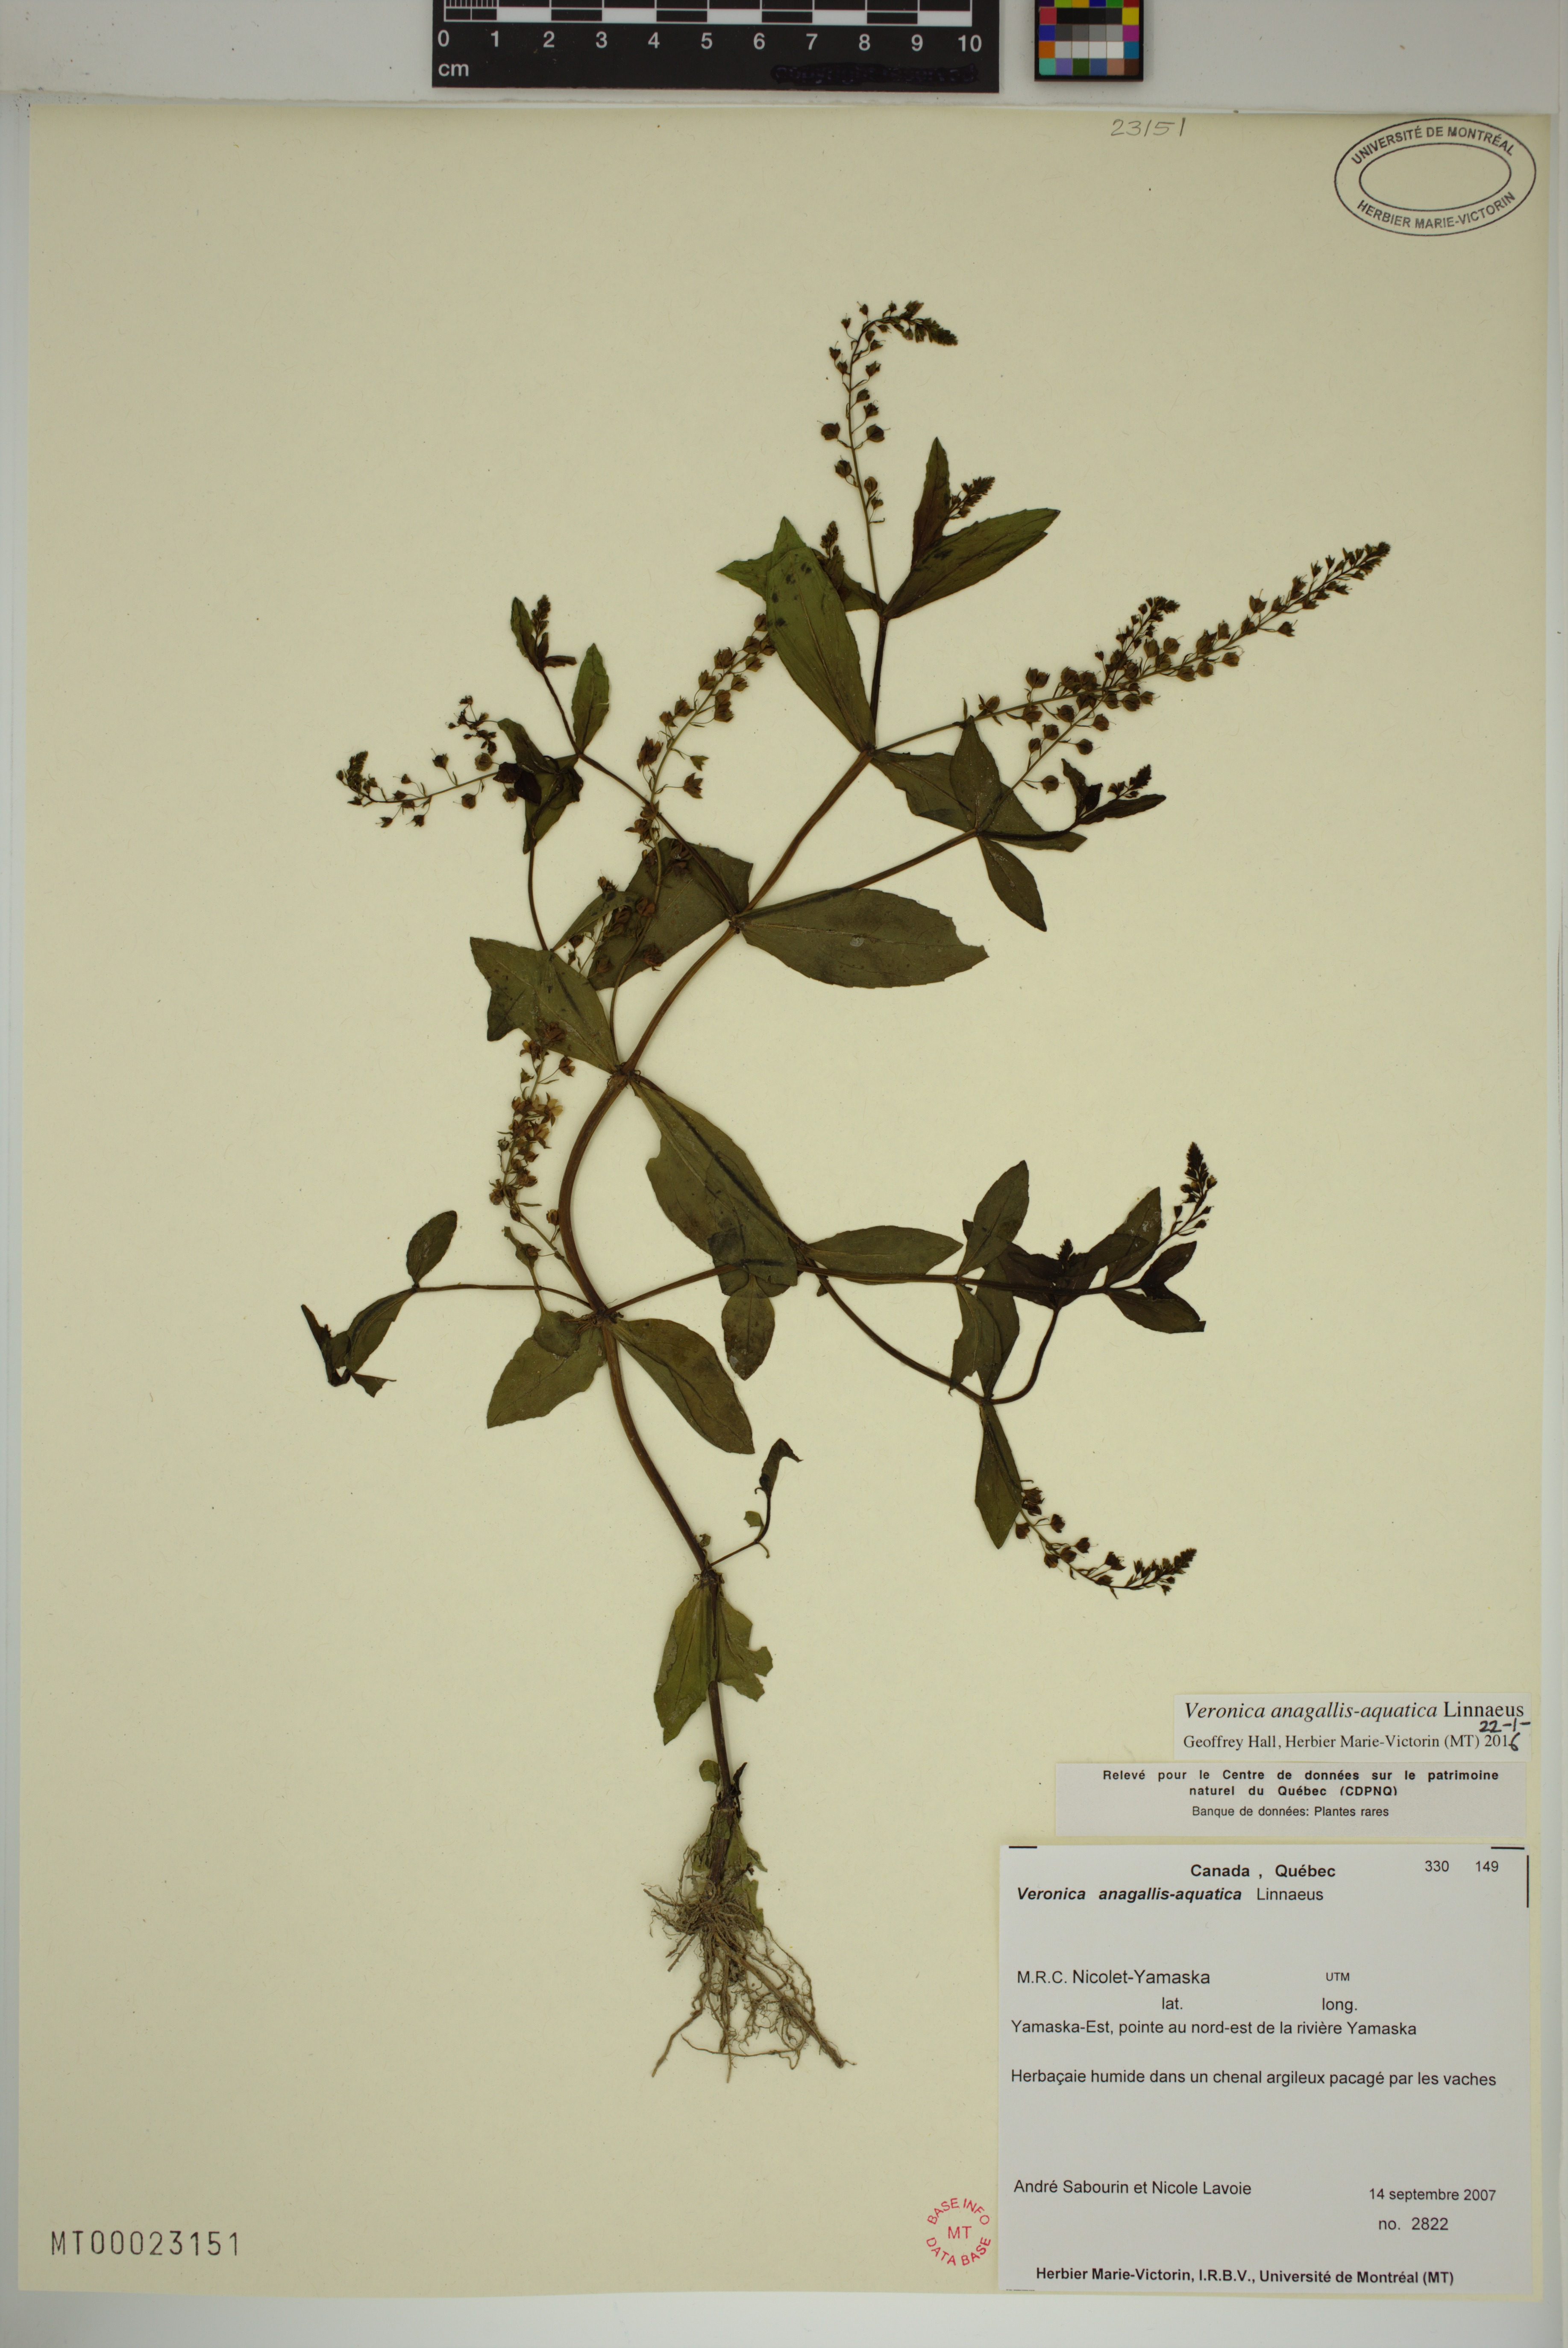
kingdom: Plantae
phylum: Tracheophyta
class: Magnoliopsida
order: Lamiales
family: Plantaginaceae
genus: Veronica
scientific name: Veronica anagallis-aquatica
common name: Water speedwell
